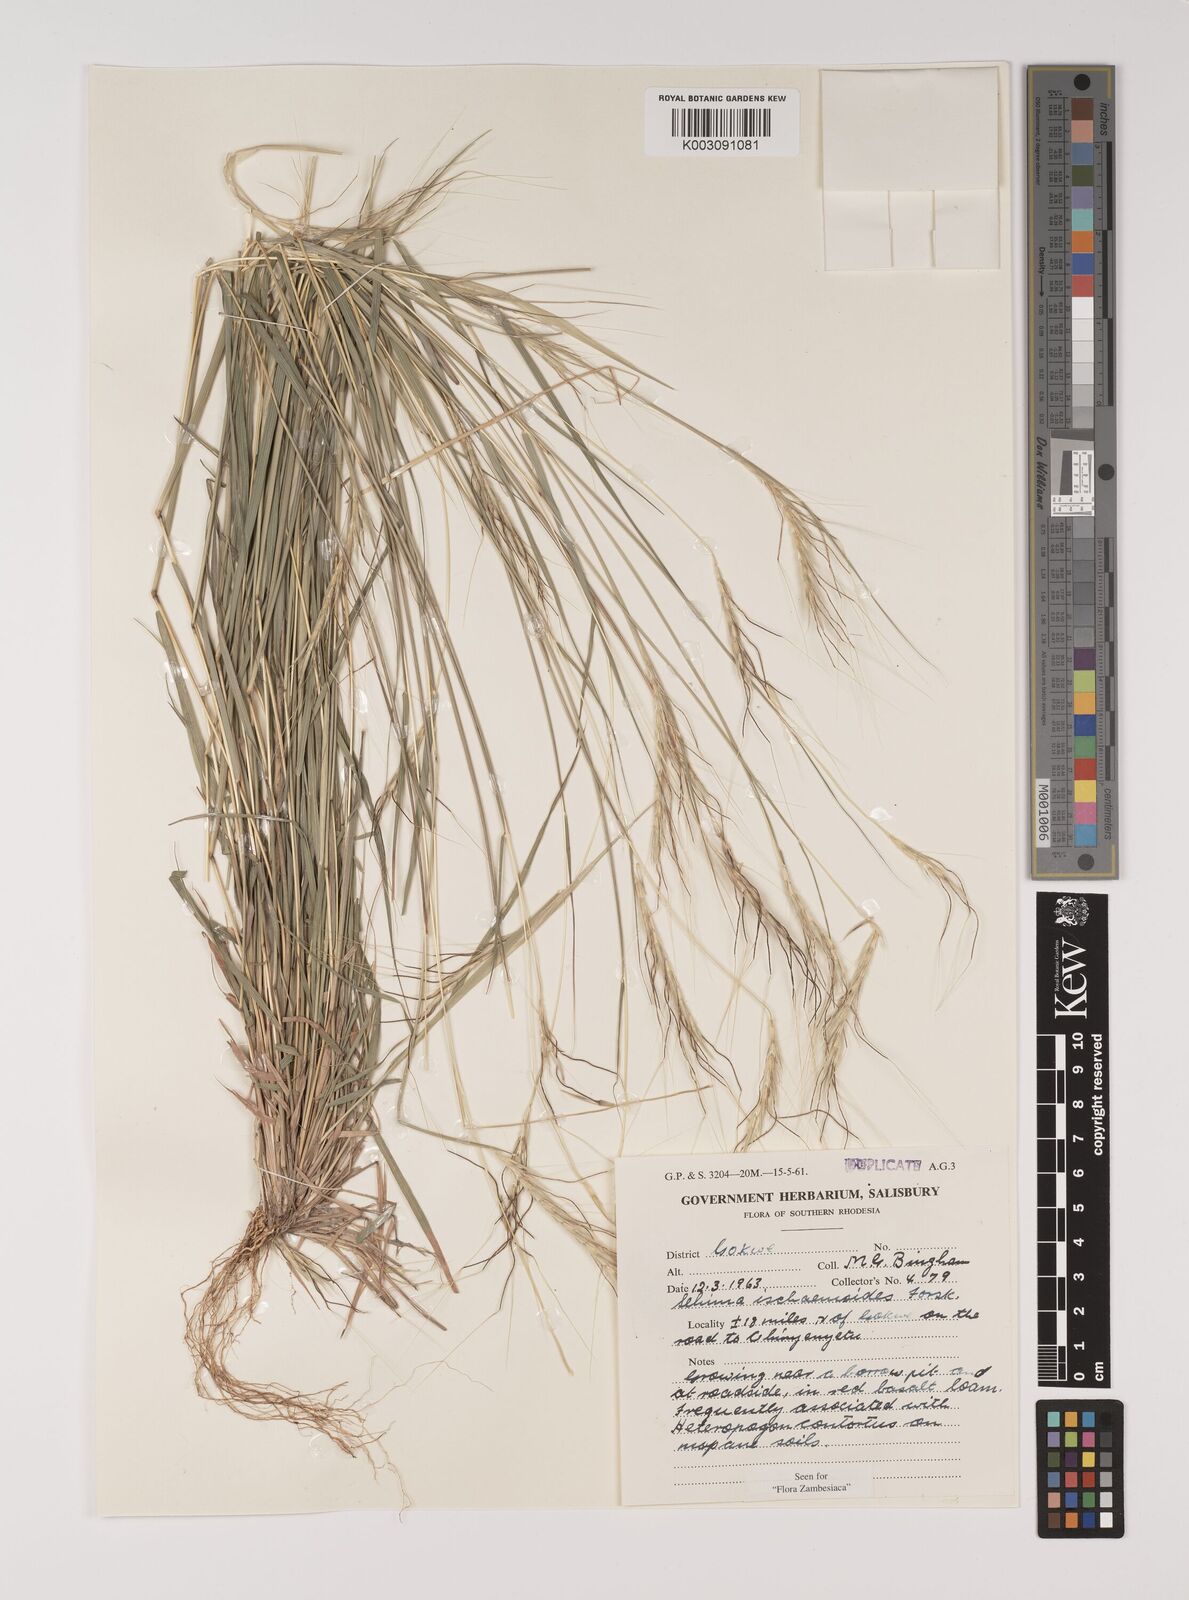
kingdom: Plantae
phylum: Tracheophyta
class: Liliopsida
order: Poales
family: Poaceae
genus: Sehima
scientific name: Sehima ischaemoides
